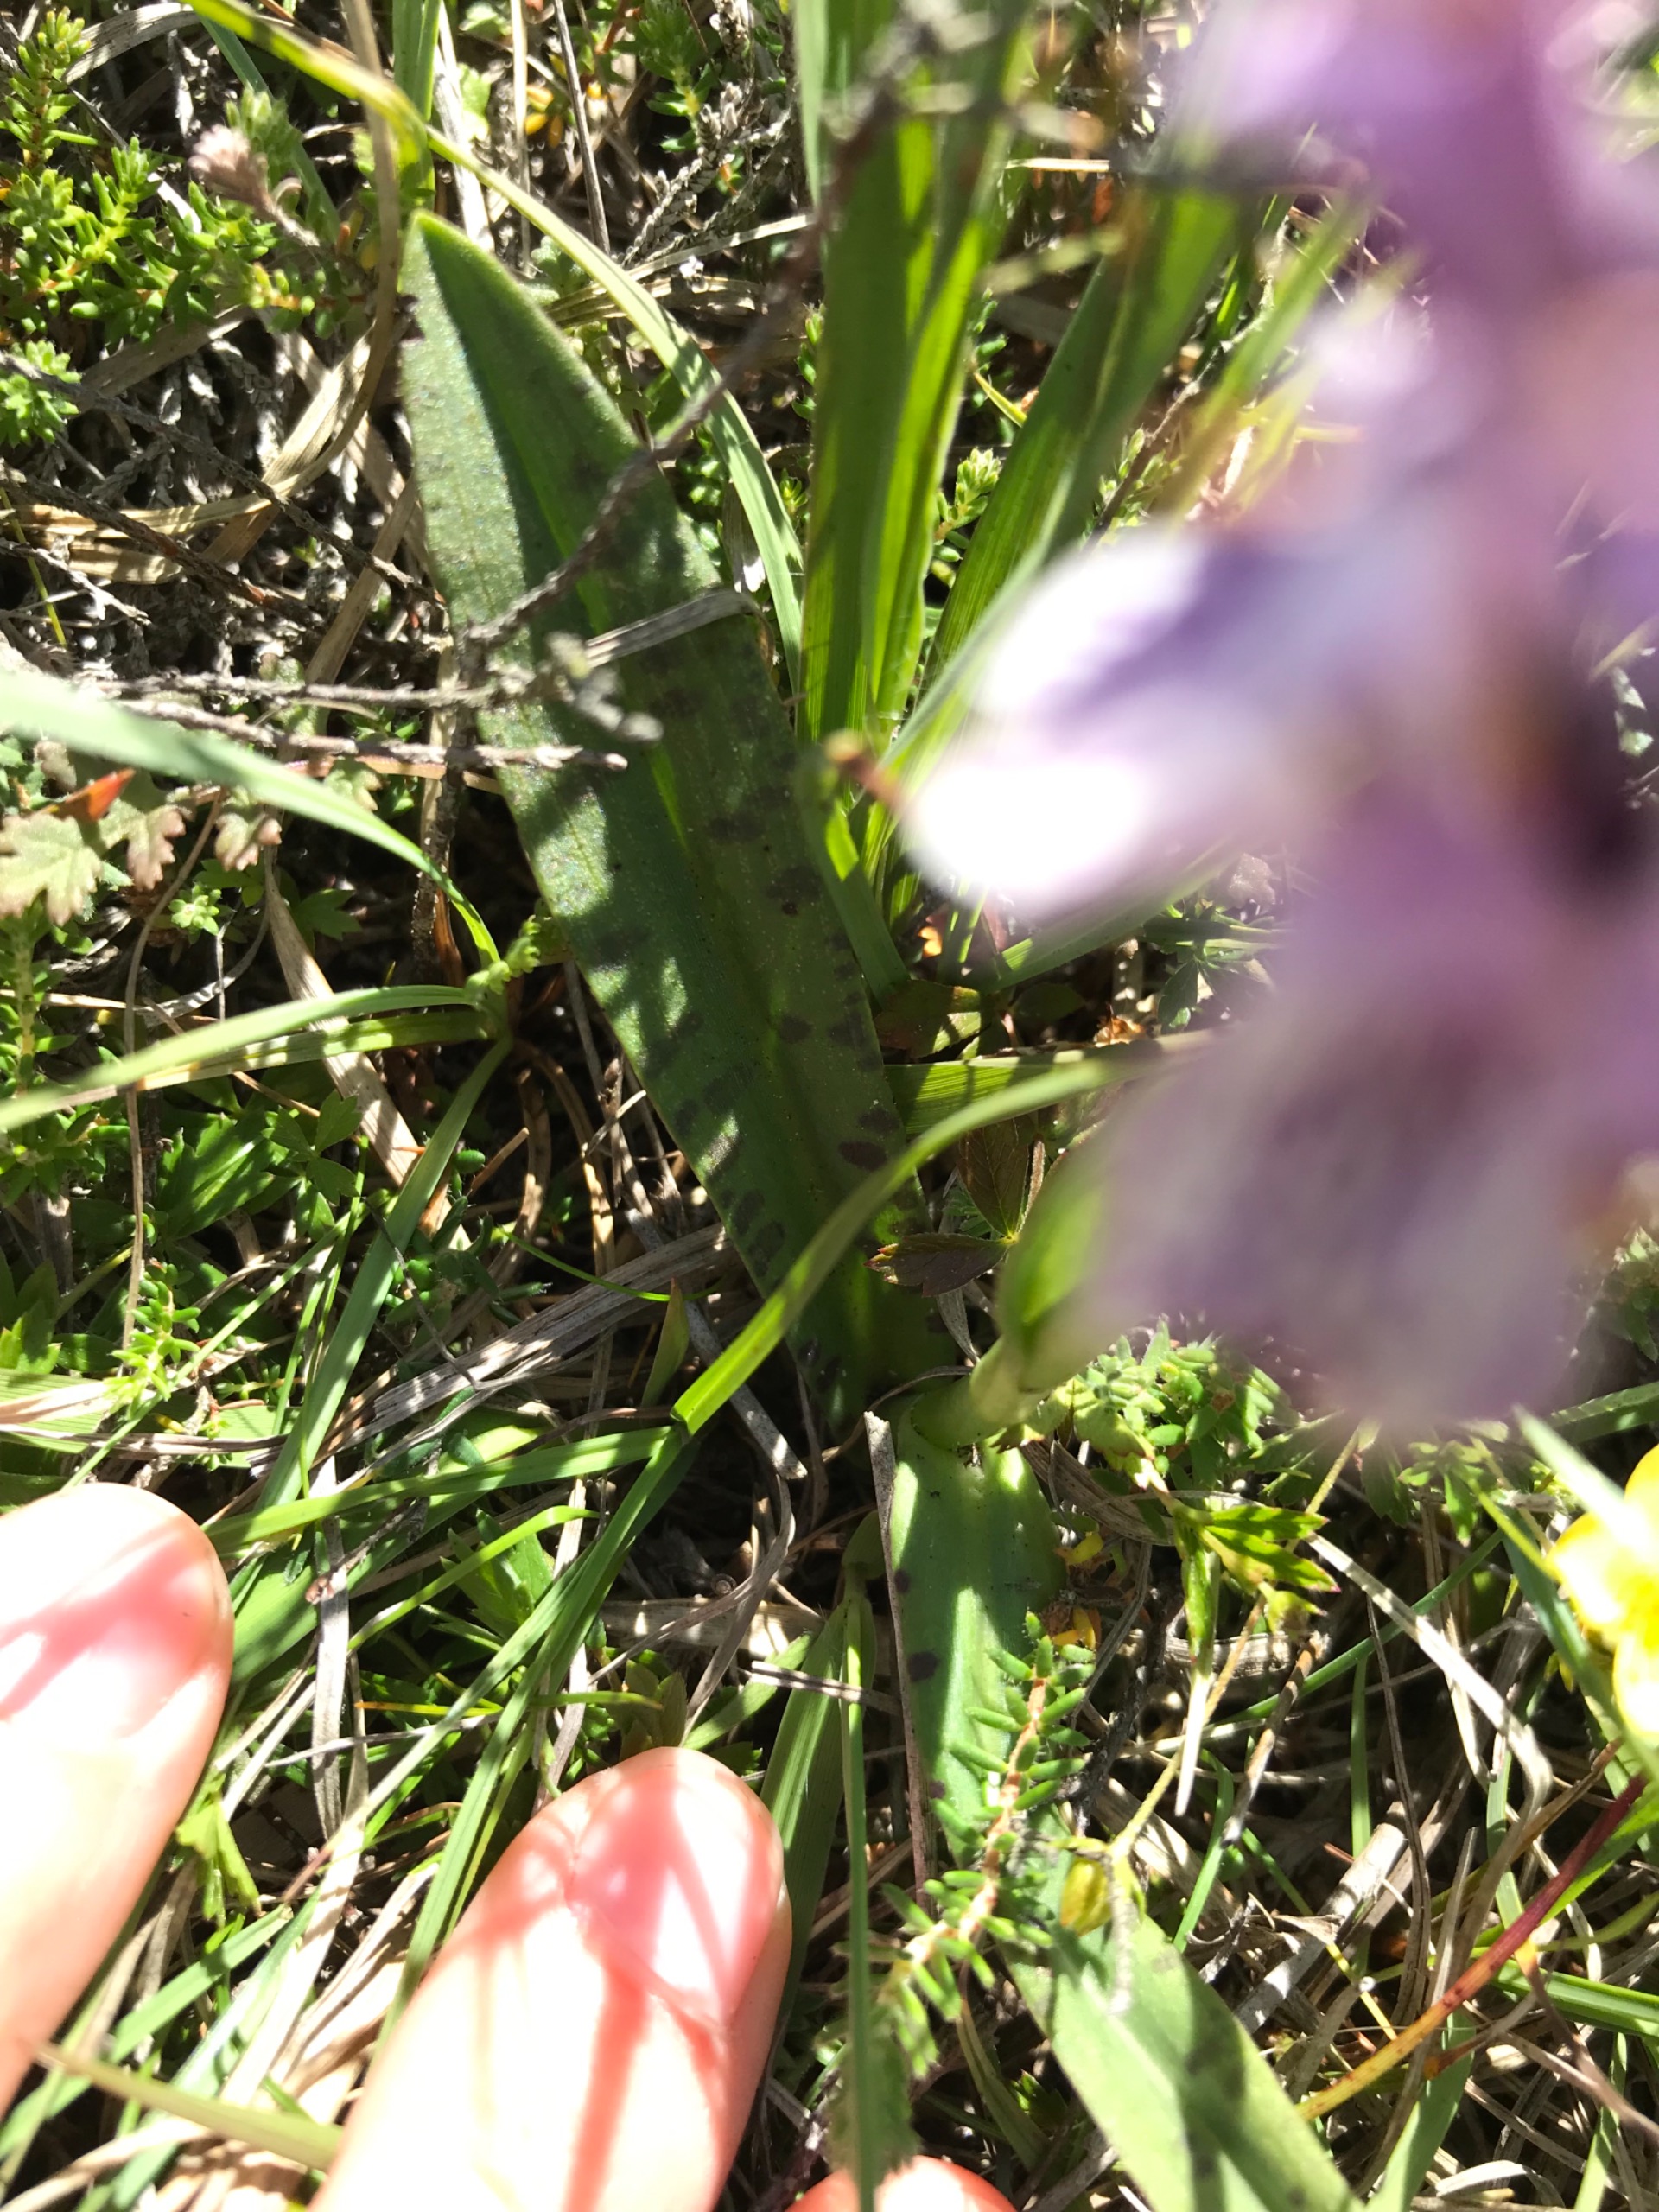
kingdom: Plantae
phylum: Tracheophyta
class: Liliopsida
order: Asparagales
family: Orchidaceae
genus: Dactylorhiza
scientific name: Dactylorhiza maculata
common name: Plettet gøgeurt
